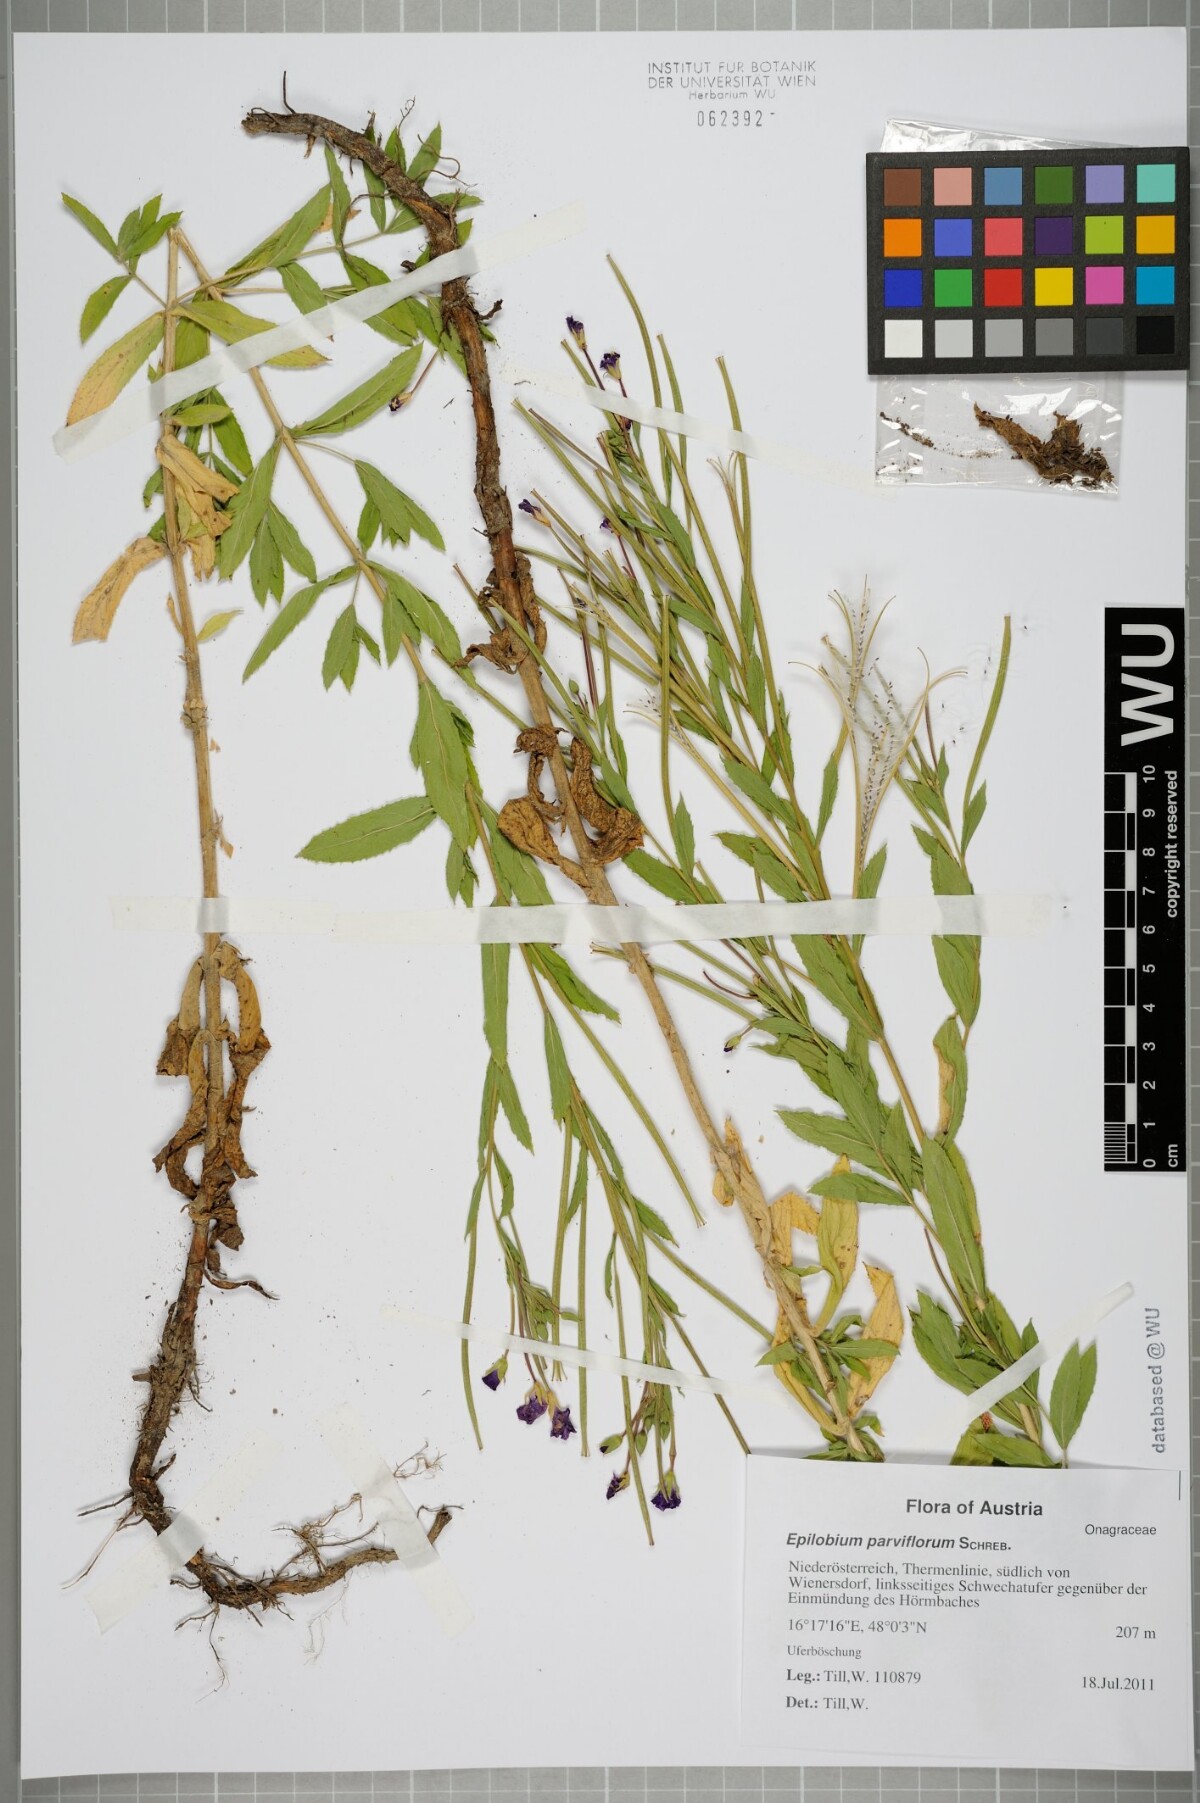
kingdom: Plantae
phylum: Tracheophyta
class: Magnoliopsida
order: Myrtales
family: Onagraceae
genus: Epilobium
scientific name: Epilobium parviflorum
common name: Hoary willowherb
